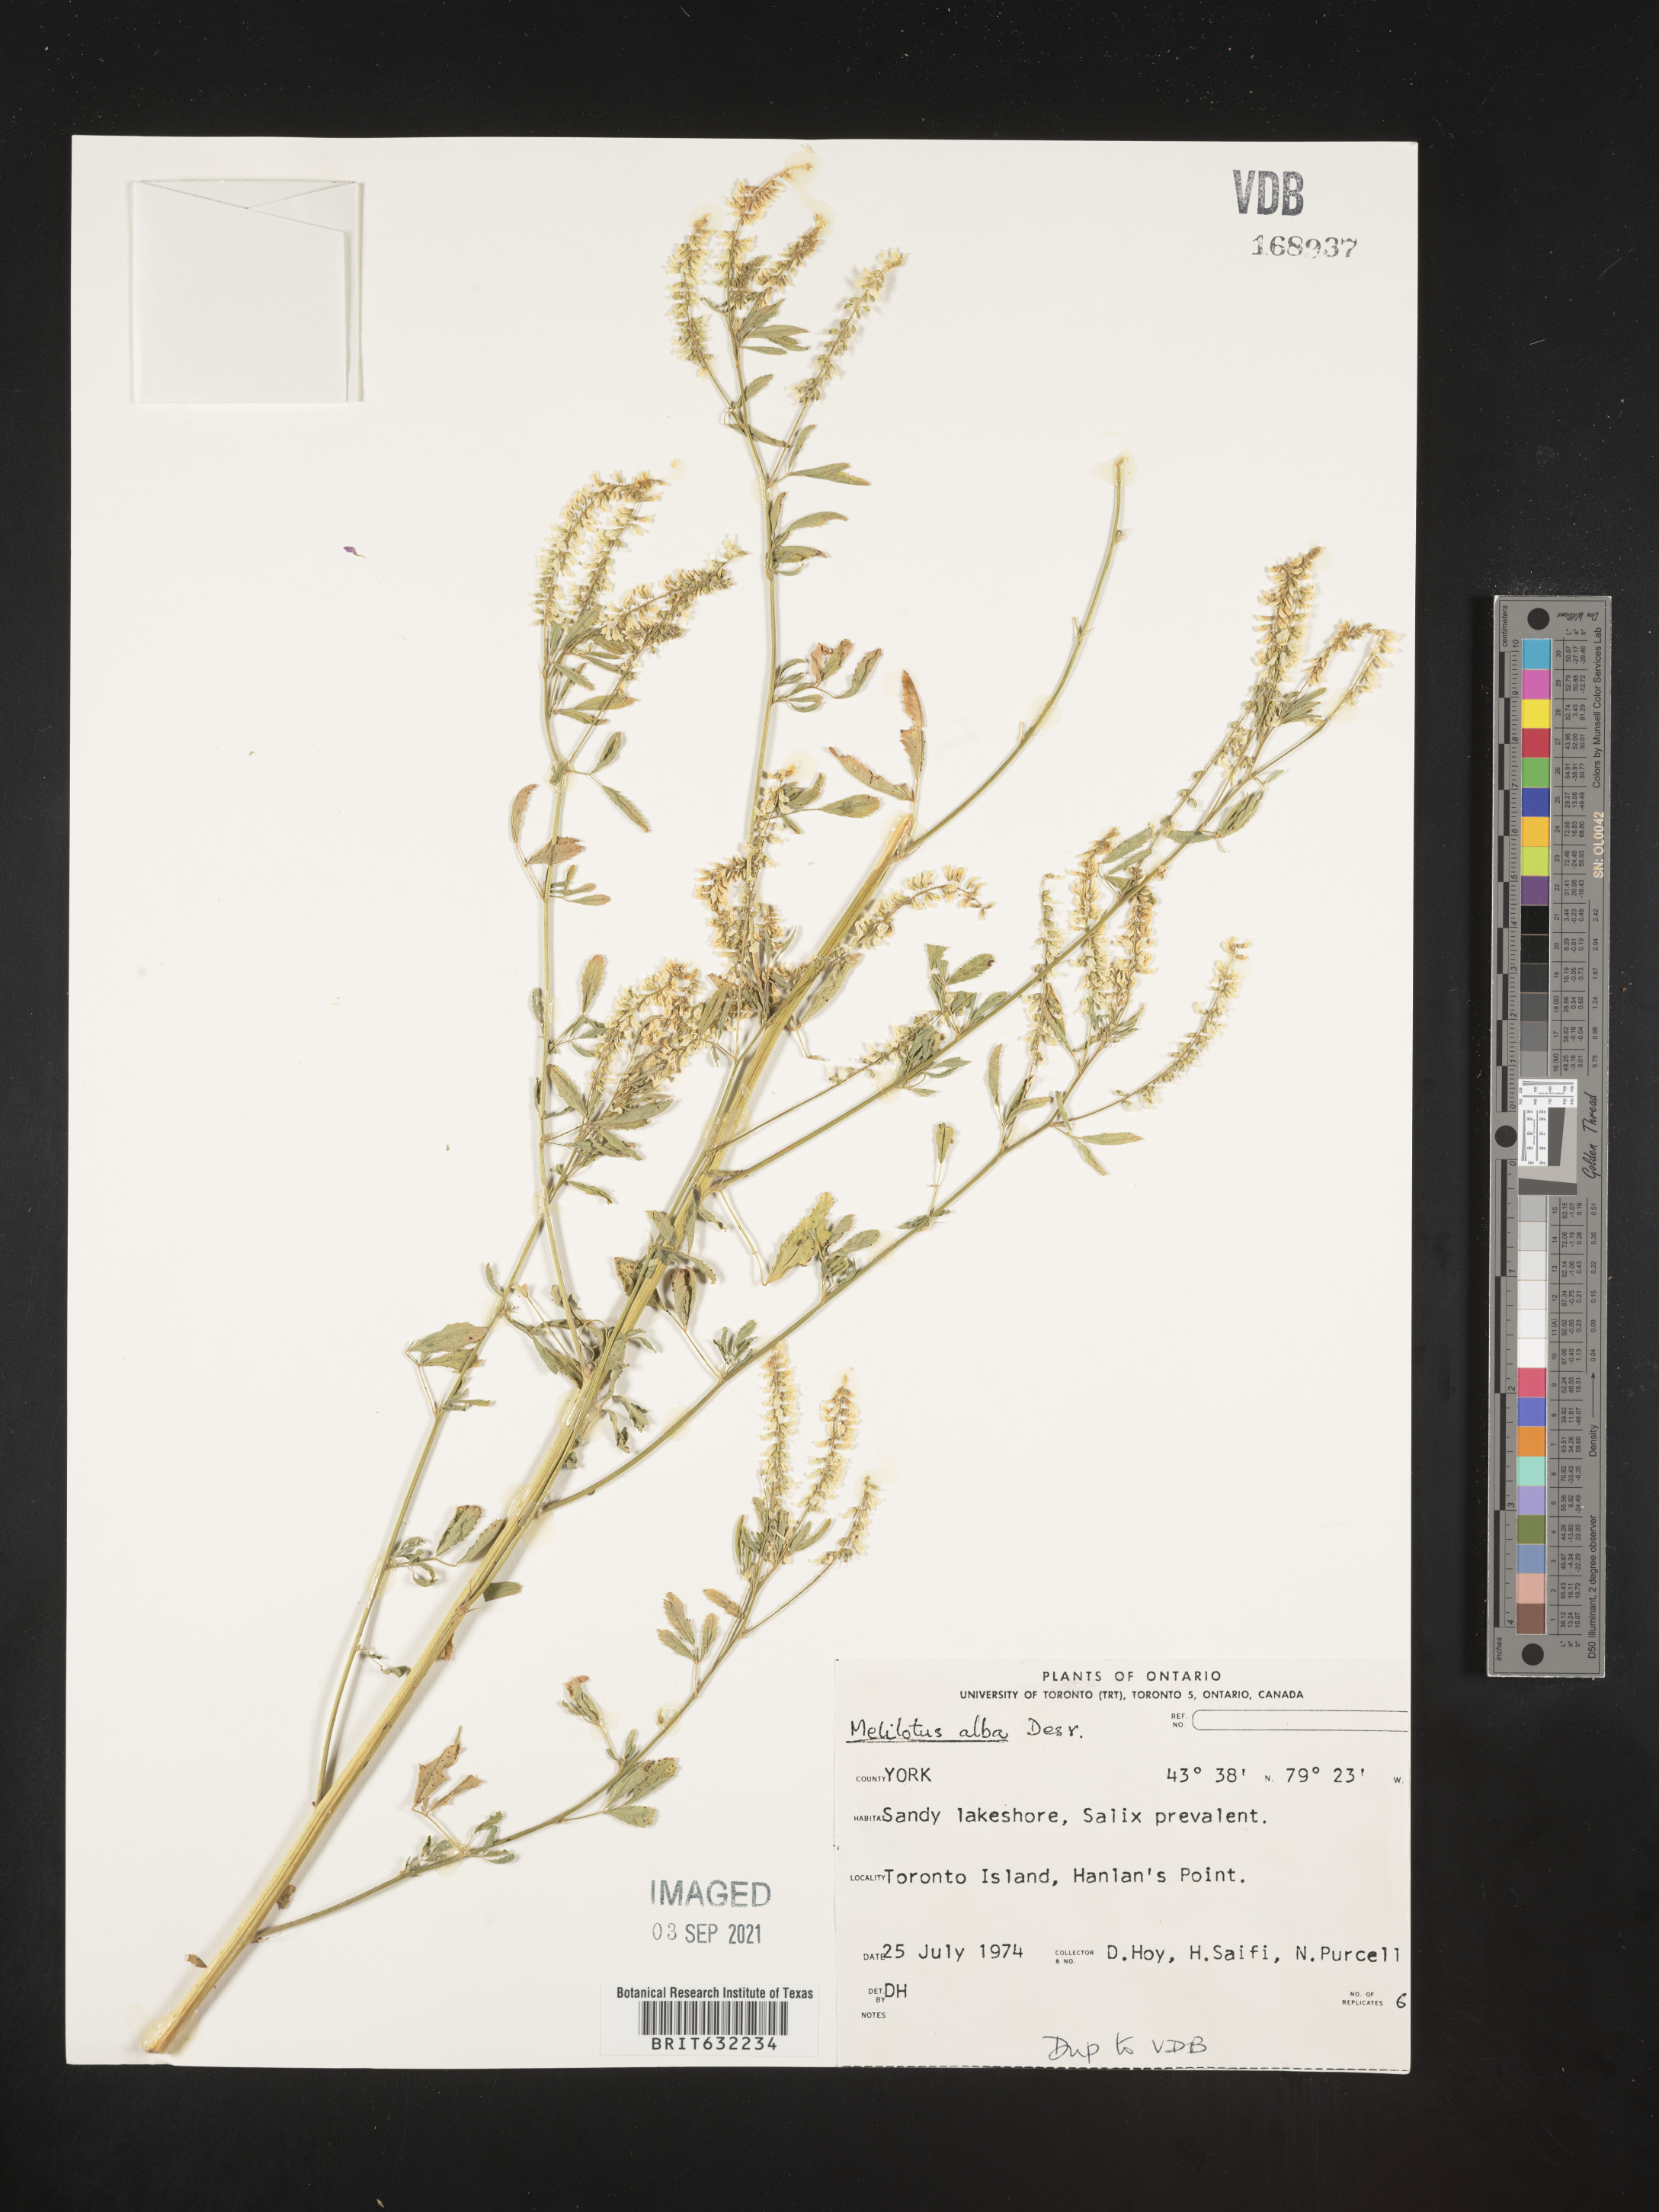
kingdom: Plantae
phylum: Tracheophyta
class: Magnoliopsida
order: Fabales
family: Fabaceae
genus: Melilotus
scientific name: Melilotus
